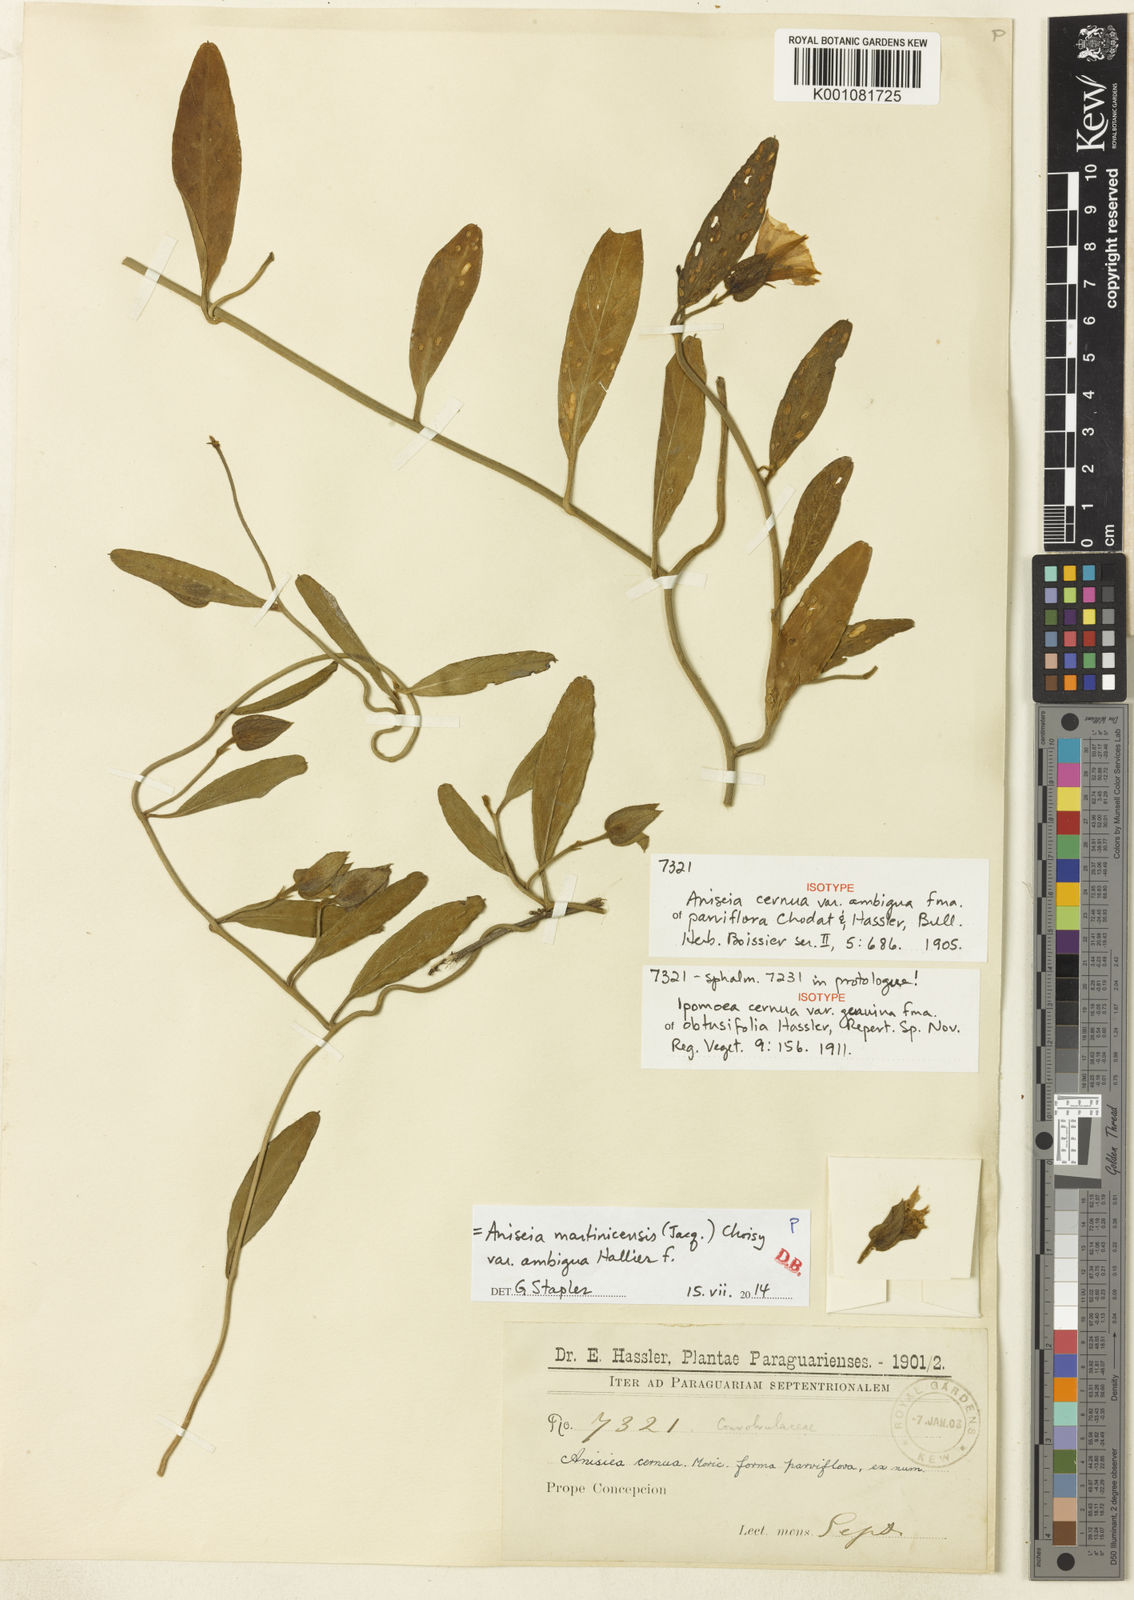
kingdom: Plantae
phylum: Tracheophyta
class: Magnoliopsida
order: Solanales
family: Convolvulaceae
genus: Aniseia
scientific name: Aniseia martinicensis
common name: Kulayadambu
